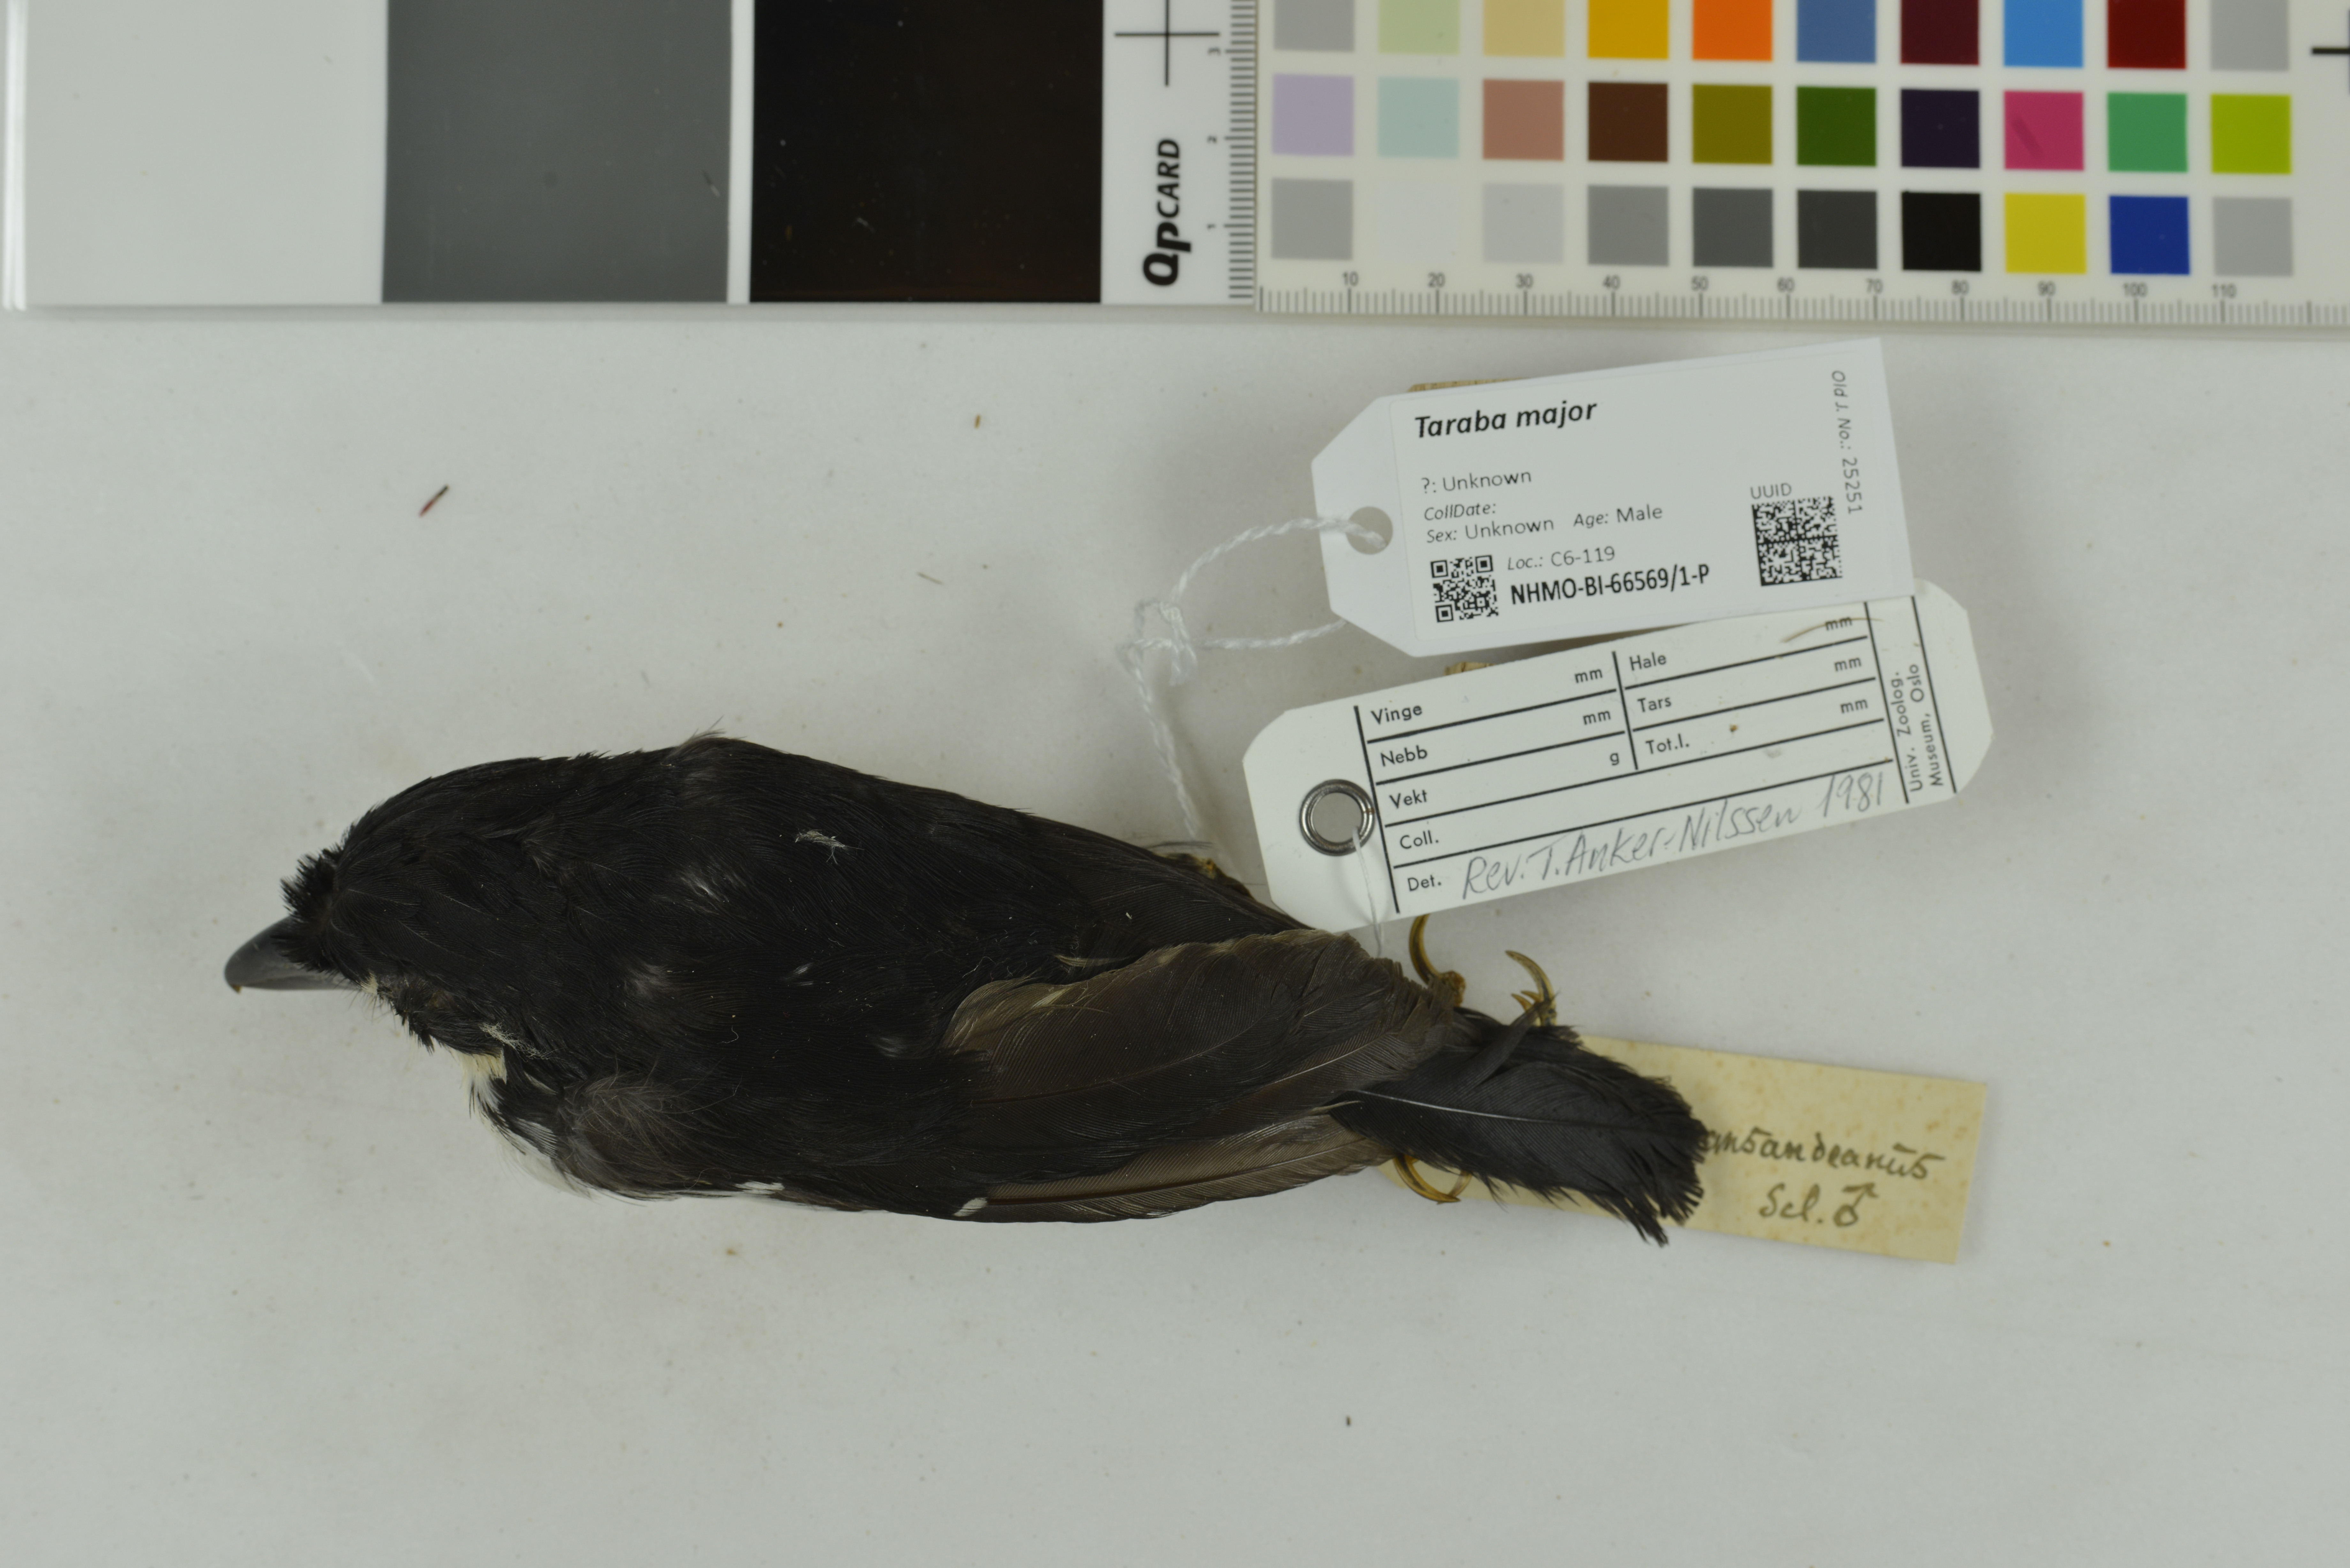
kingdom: Animalia
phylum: Chordata
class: Aves
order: Passeriformes
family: Thamnophilidae
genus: Taraba
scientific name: Taraba major
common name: Great antshrike
